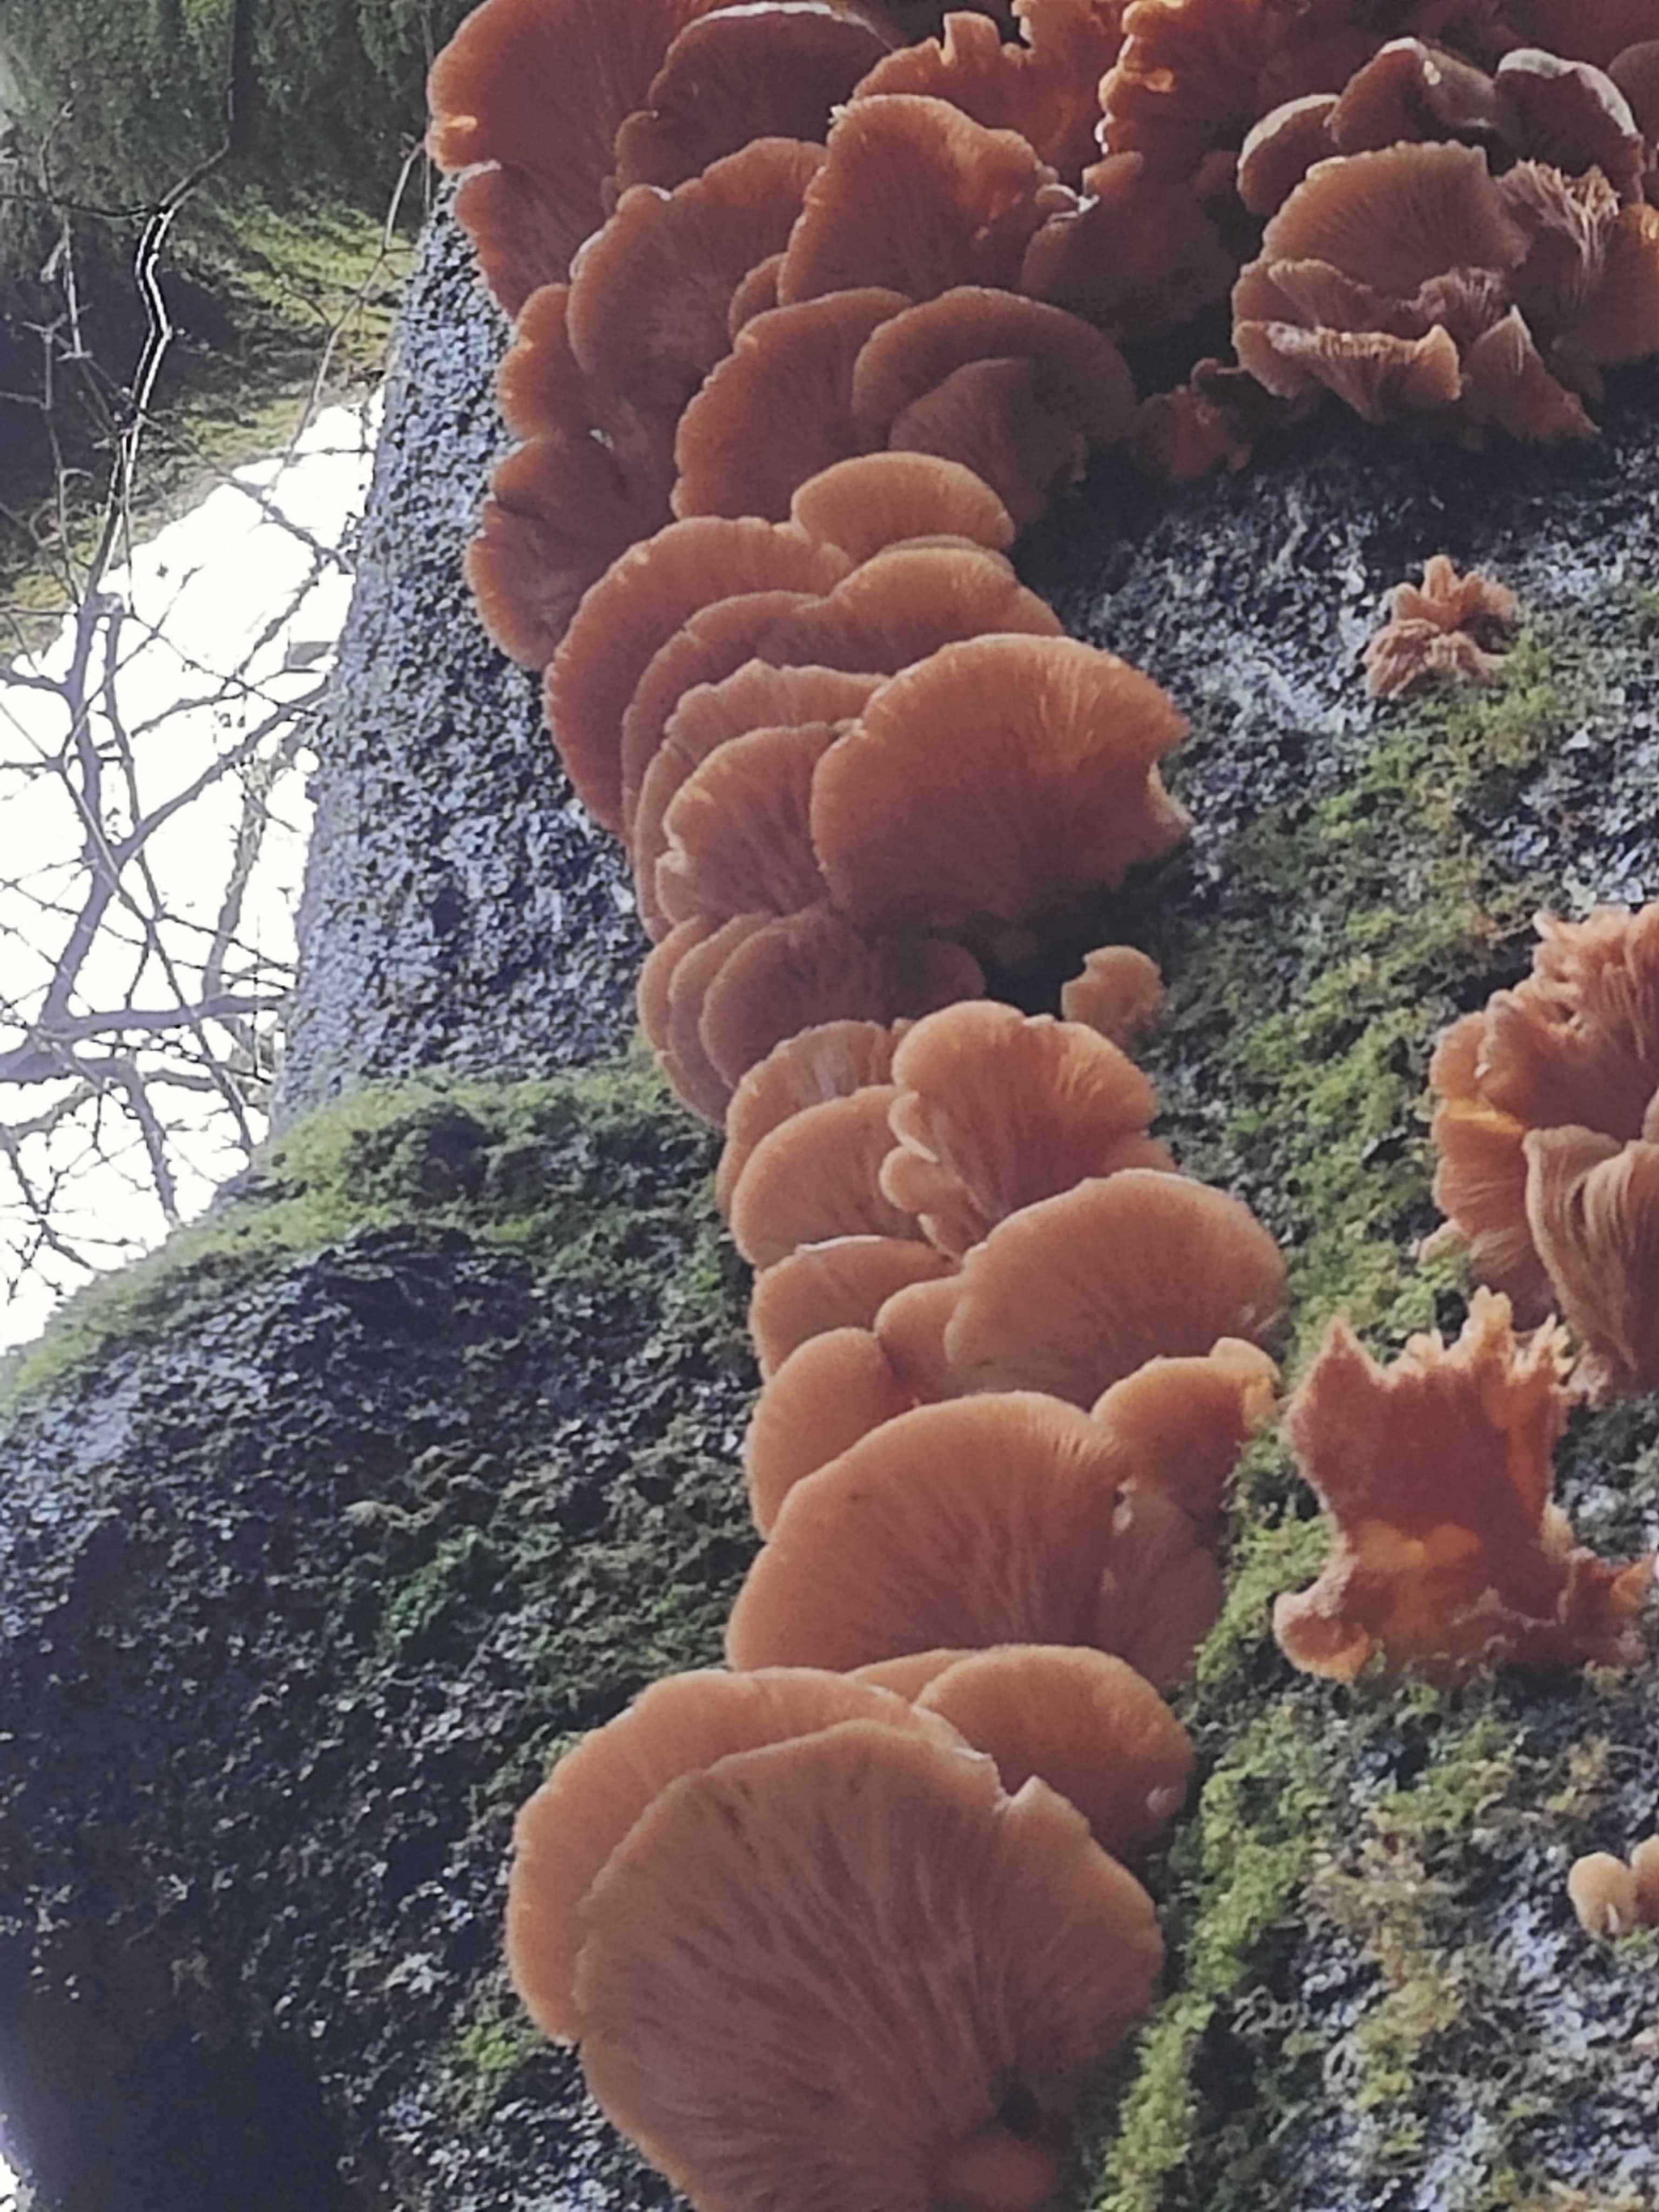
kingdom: Fungi
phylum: Basidiomycota
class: Agaricomycetes
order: Agaricales
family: Pleurotaceae
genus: Pleurotus
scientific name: Pleurotus ostreatus
